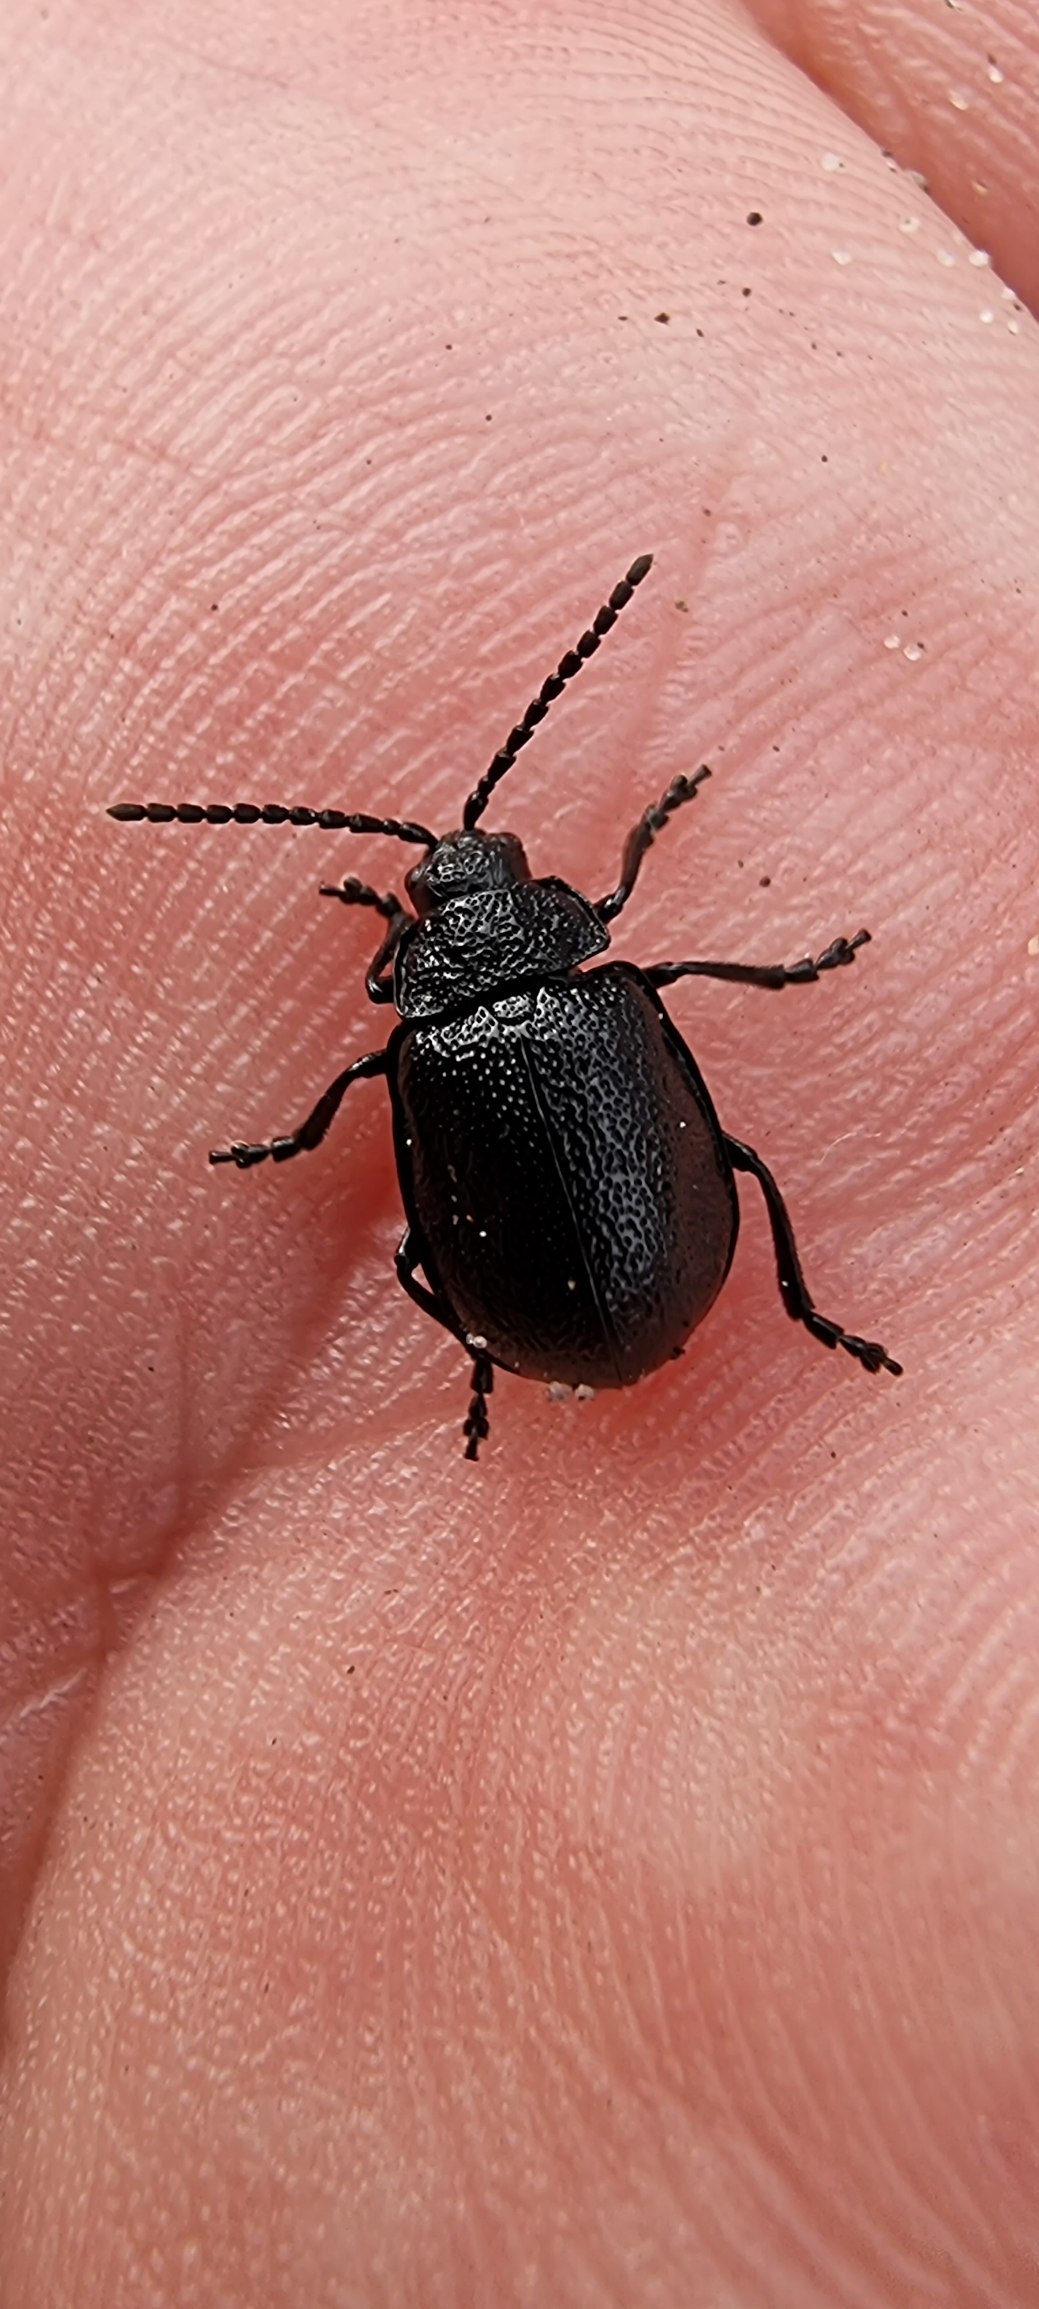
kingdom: Animalia
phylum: Arthropoda
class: Insecta
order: Coleoptera
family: Chrysomelidae
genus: Galeruca
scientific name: Galeruca tanaceti
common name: Rejnfanbladbille
